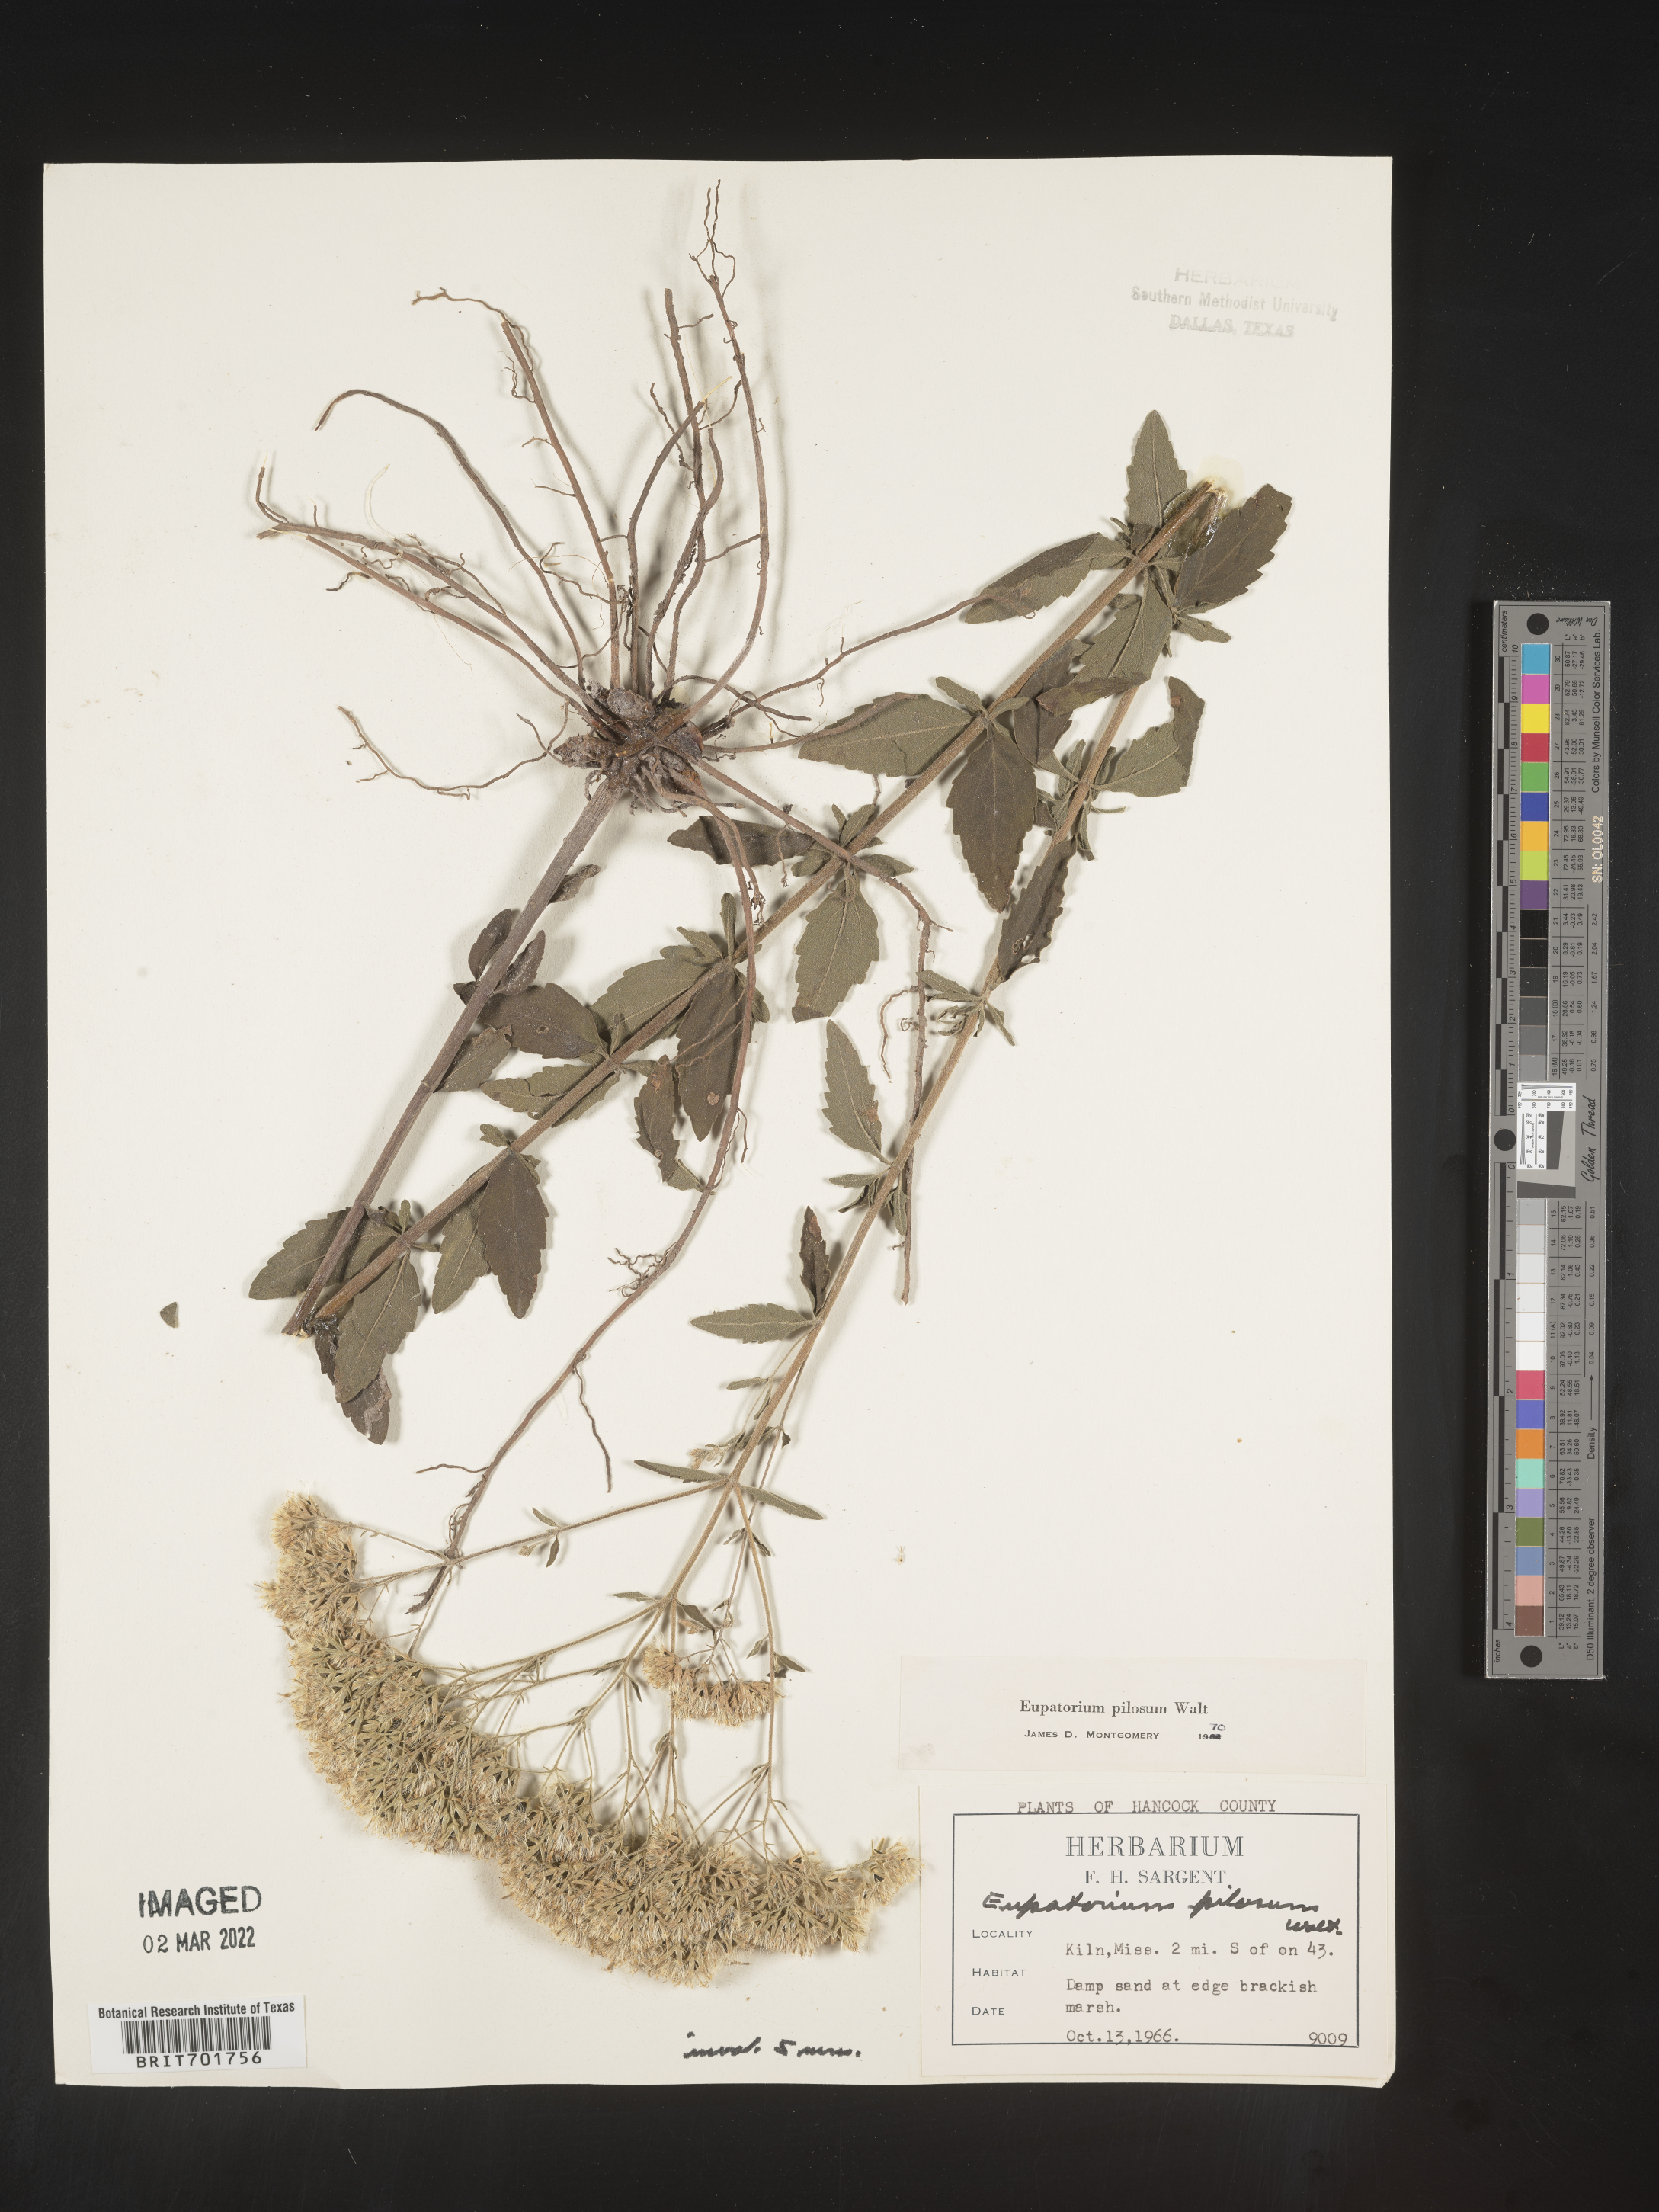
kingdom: Plantae
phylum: Tracheophyta
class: Magnoliopsida
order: Asterales
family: Asteraceae
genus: Eupatorium
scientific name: Eupatorium pilosum
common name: Rough boneset
